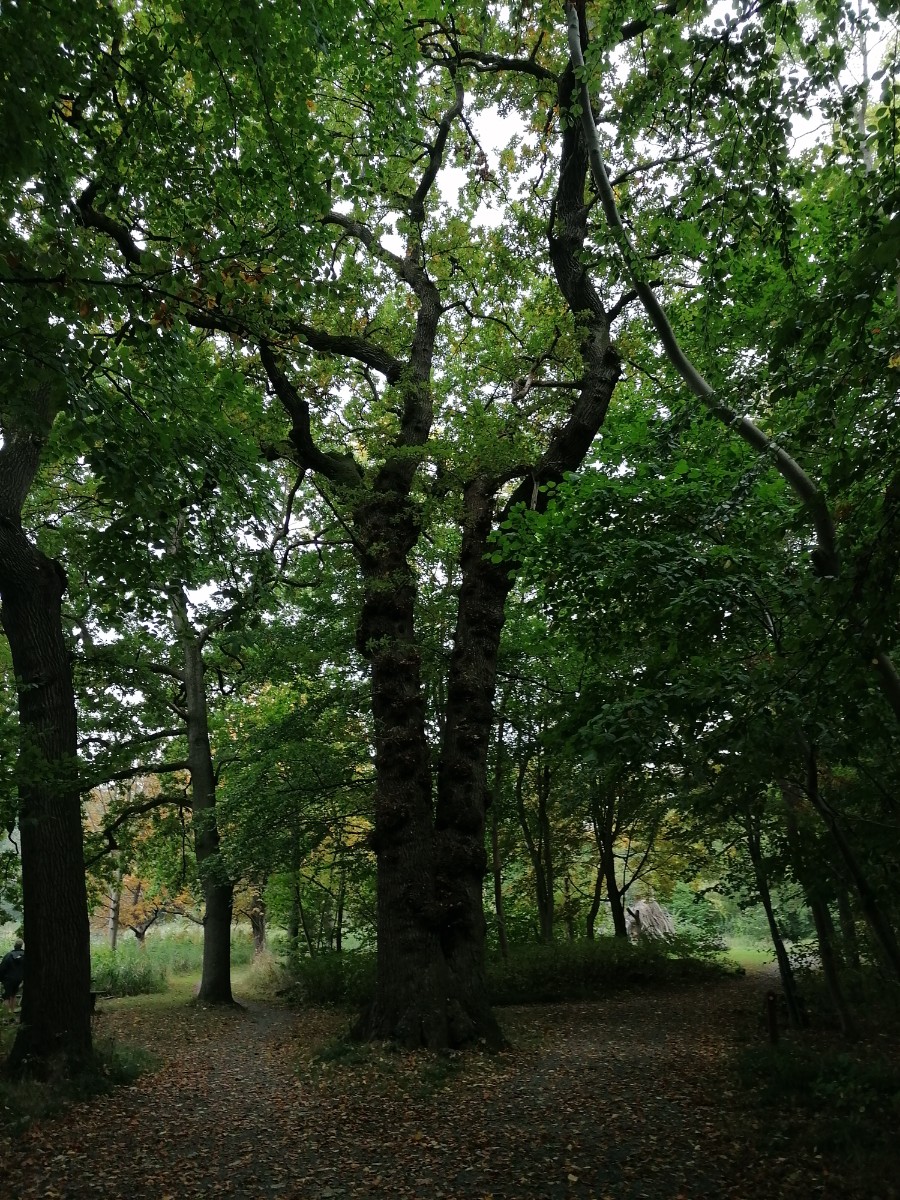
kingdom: Fungi
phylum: Basidiomycota
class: Agaricomycetes
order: Polyporales
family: Grifolaceae
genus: Grifola
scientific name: Grifola frondosa
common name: tueporesvamp
